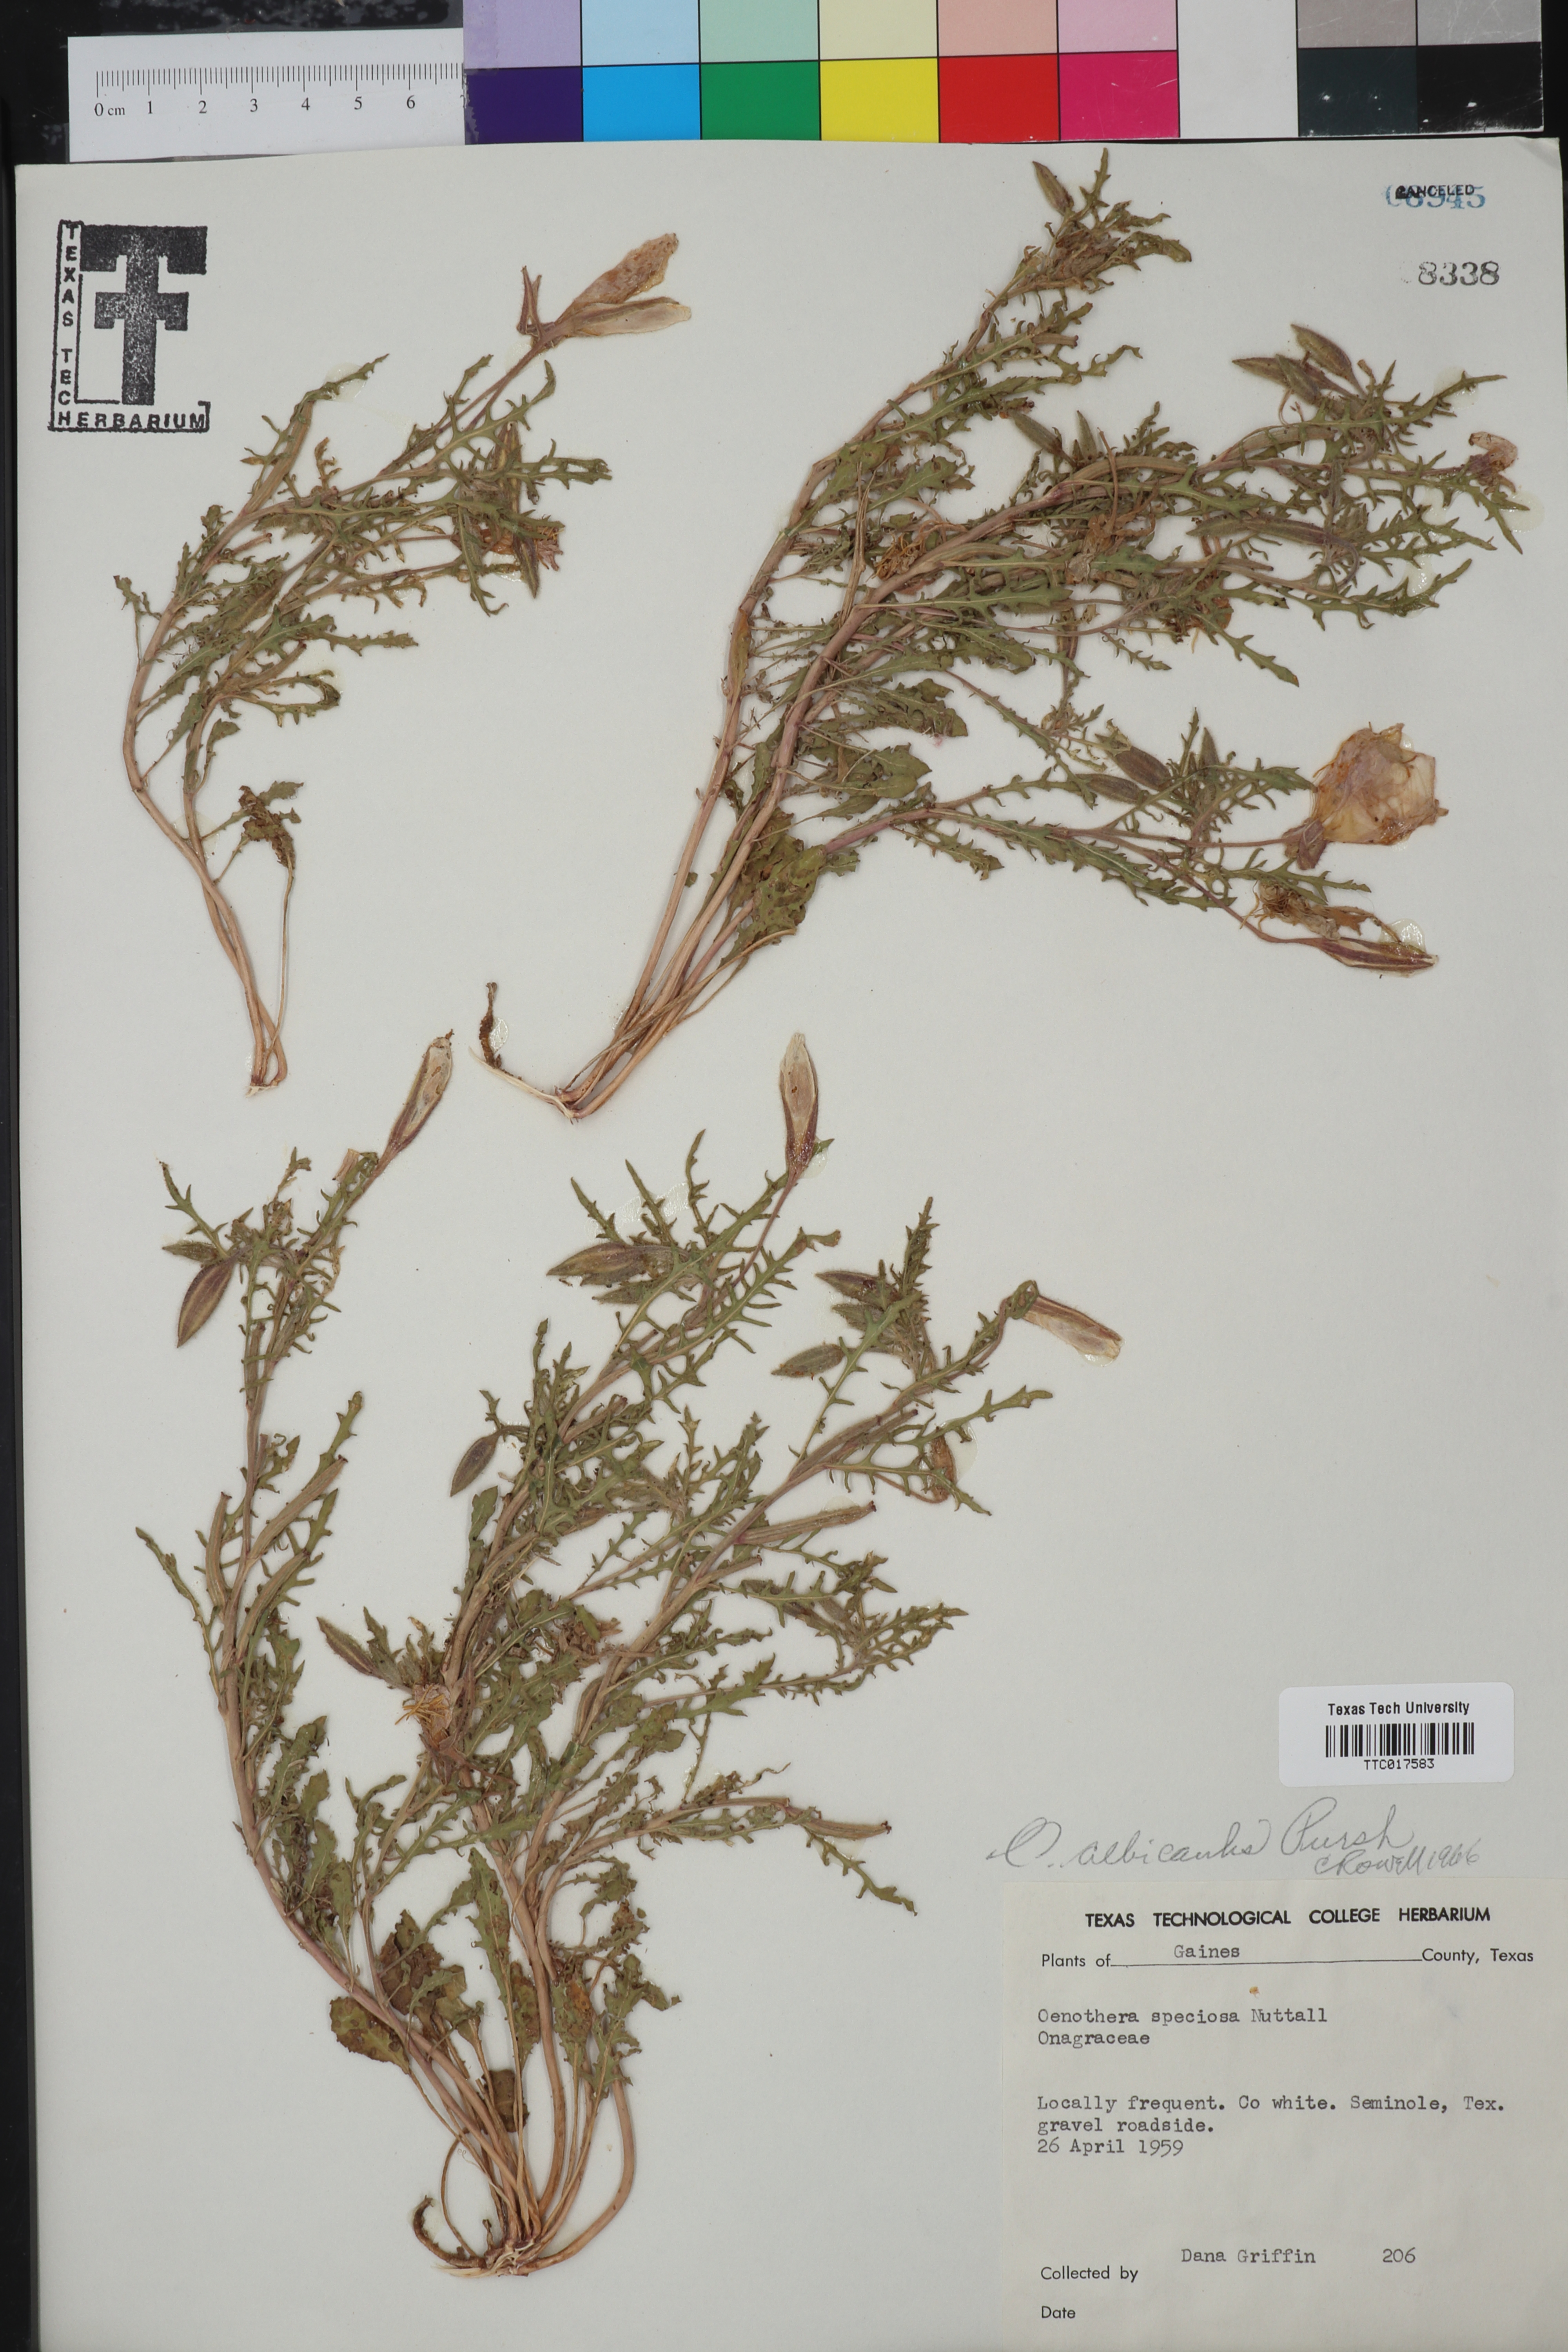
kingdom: Plantae
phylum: Tracheophyta
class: Magnoliopsida
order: Myrtales
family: Onagraceae
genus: Oenothera
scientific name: Oenothera albicaulis
